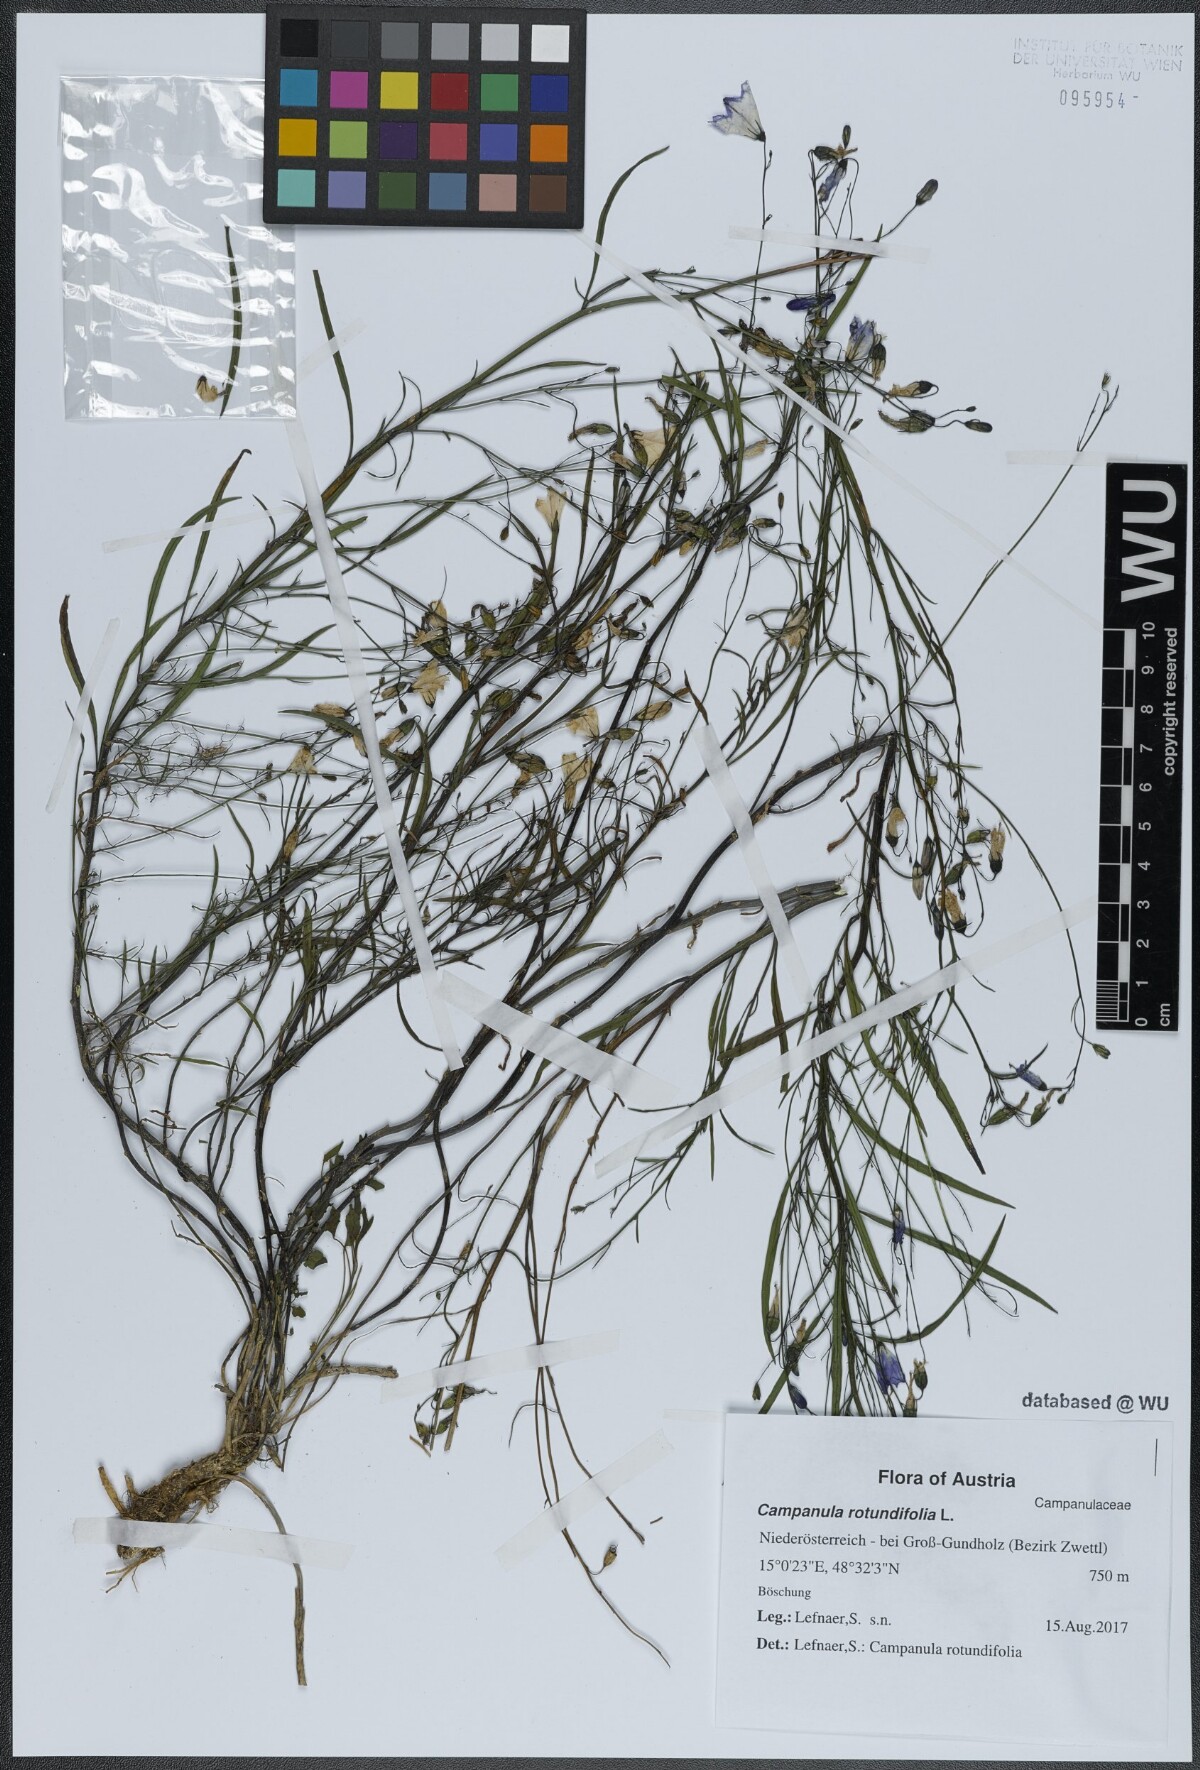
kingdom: Plantae
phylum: Tracheophyta
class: Magnoliopsida
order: Asterales
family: Campanulaceae
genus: Campanula
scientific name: Campanula rotundifolia
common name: Harebell
